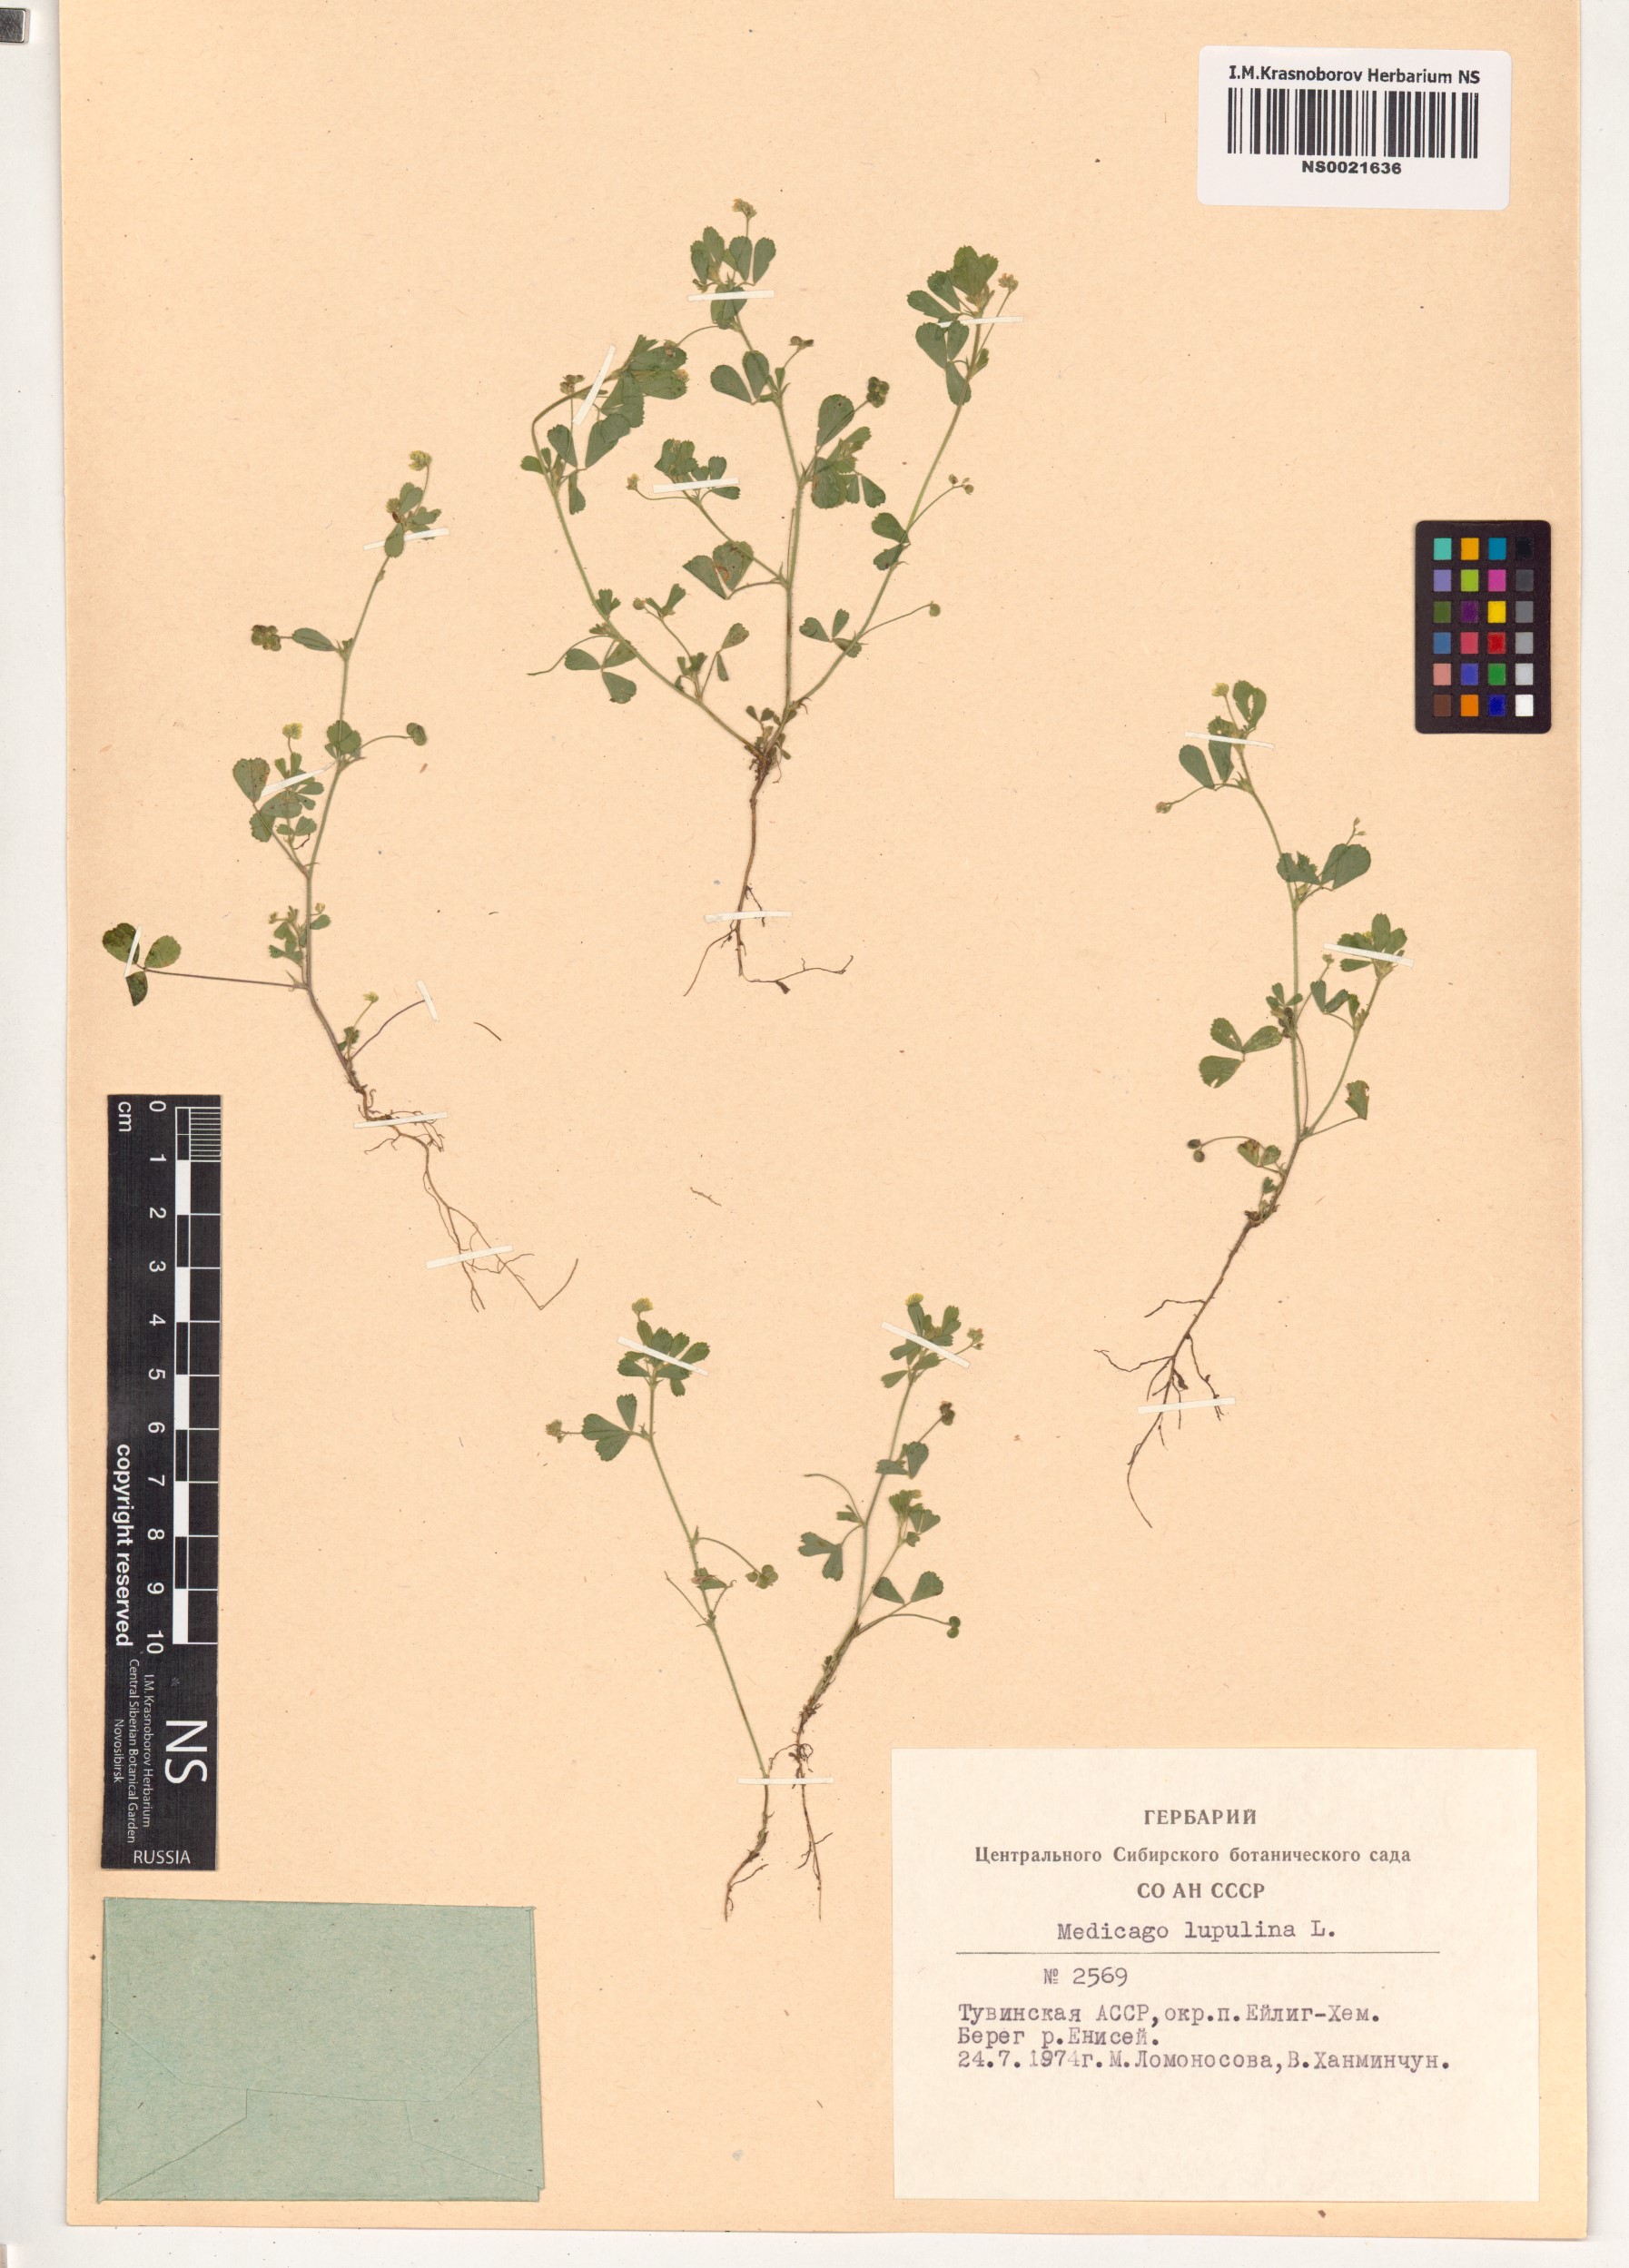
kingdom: Plantae
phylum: Tracheophyta
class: Magnoliopsida
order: Fabales
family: Fabaceae
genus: Medicago
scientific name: Medicago lupulina
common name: Black medick
